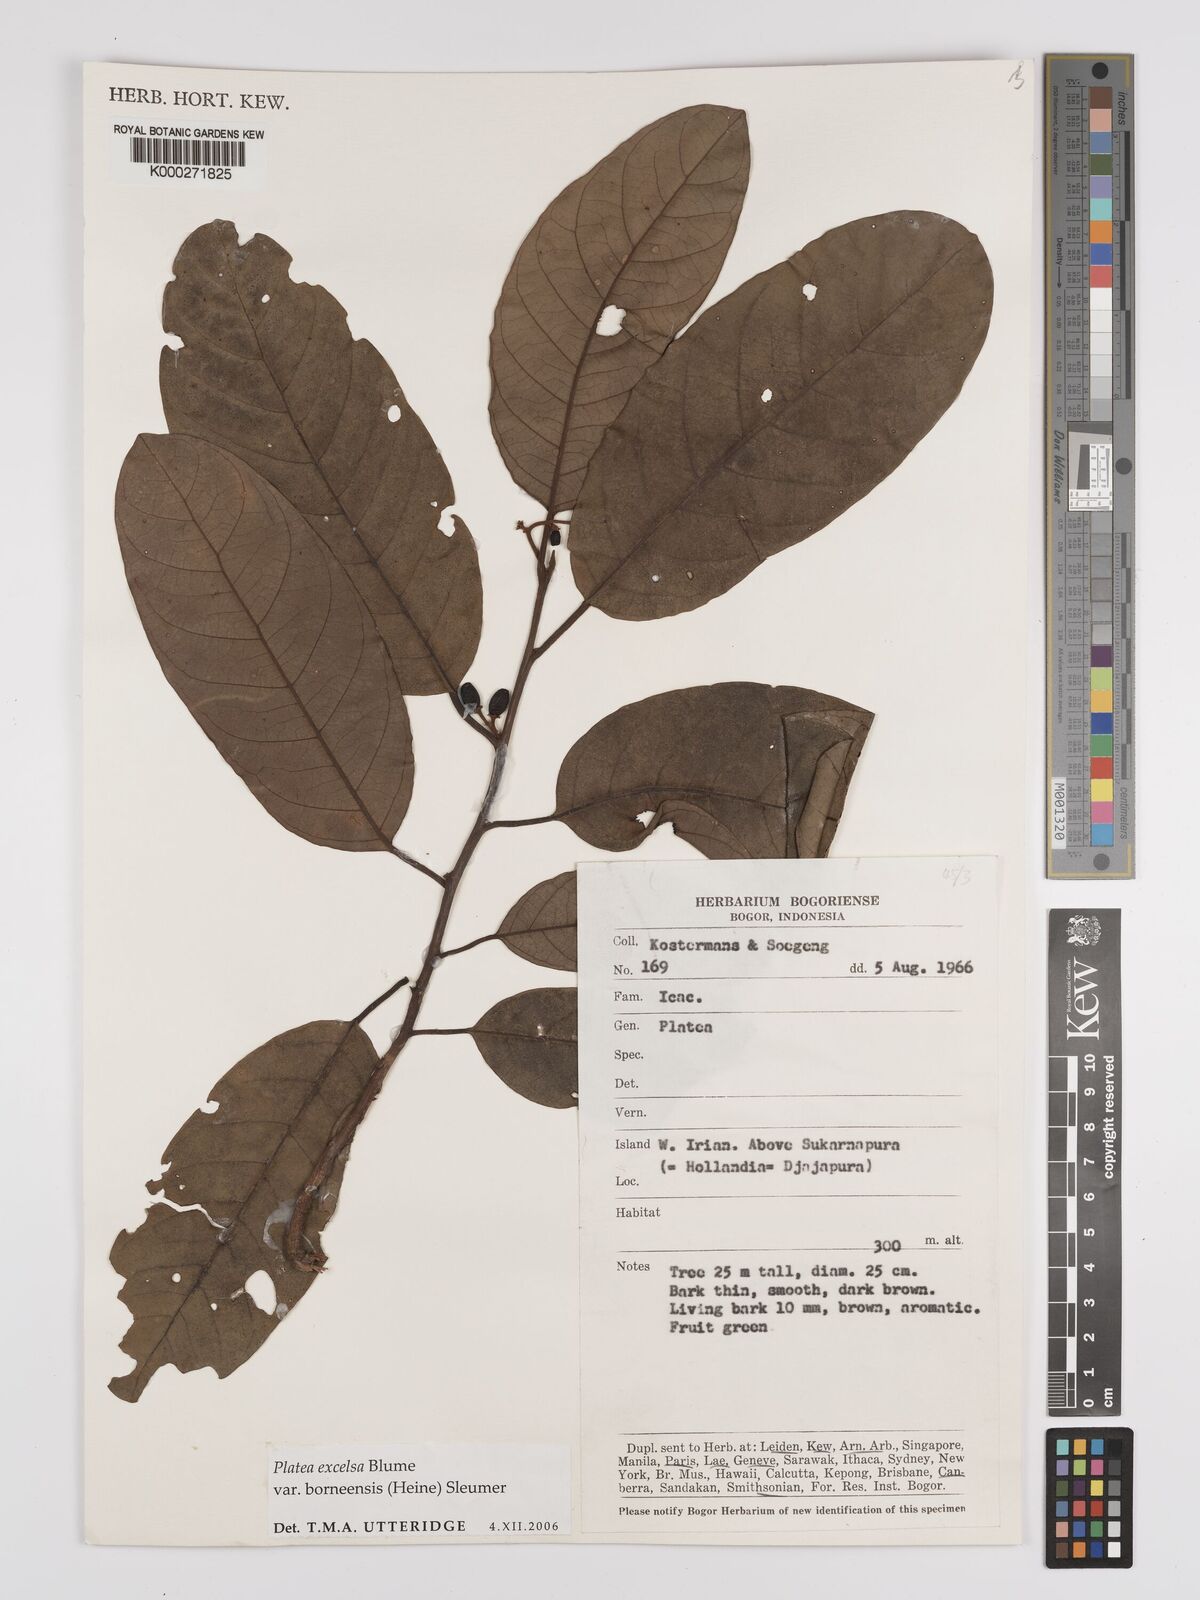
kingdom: Plantae
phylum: Tracheophyta
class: Magnoliopsida
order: Metteniusales
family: Metteniusaceae
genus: Platea
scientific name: Platea excelsa
